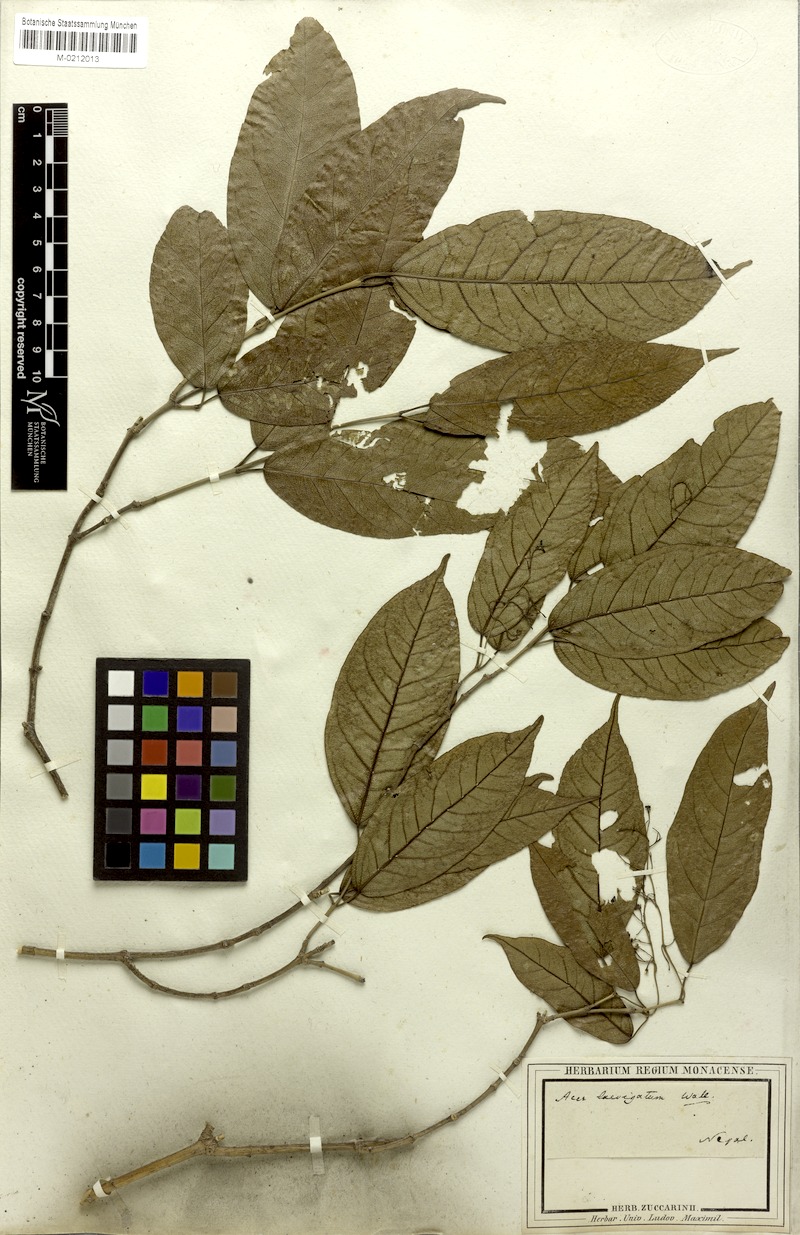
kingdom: Plantae
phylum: Tracheophyta
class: Magnoliopsida
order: Sapindales
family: Sapindaceae
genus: Acer
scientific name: Acer laevigatum
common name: Nepal maple
